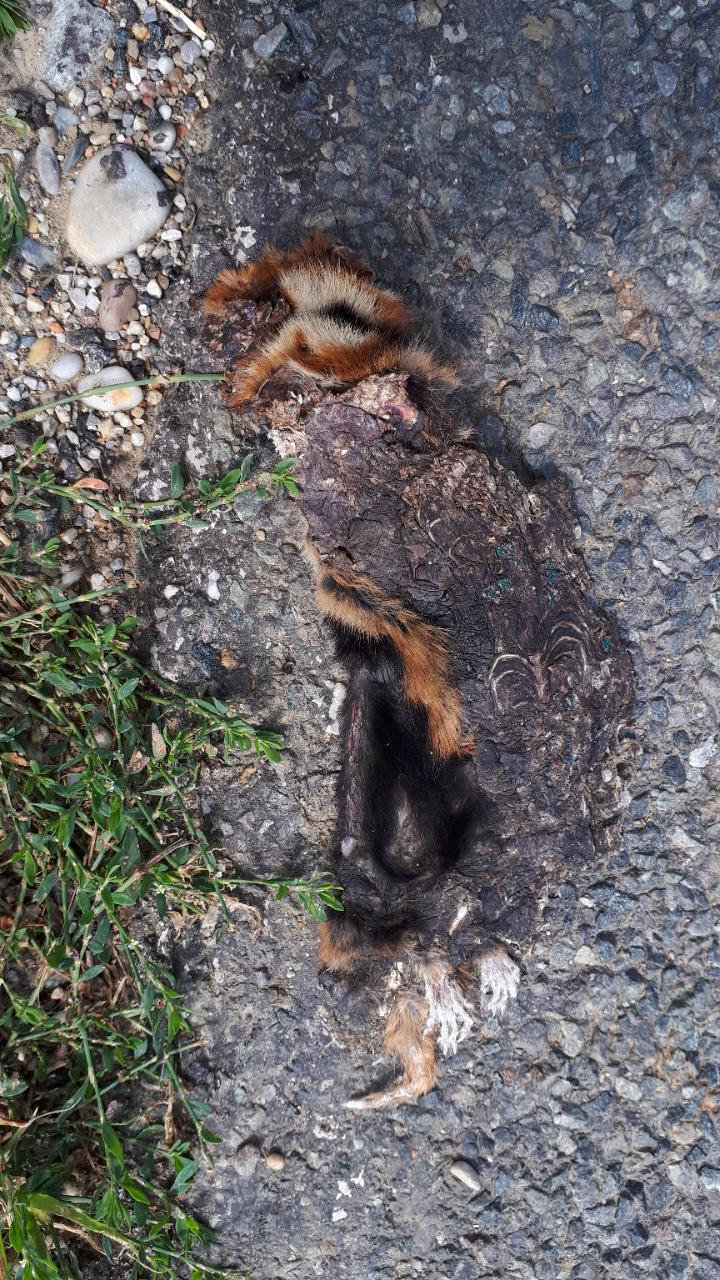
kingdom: Animalia
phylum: Chordata
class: Mammalia
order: Rodentia
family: Cricetidae
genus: Cricetus
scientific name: Cricetus cricetus
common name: Common hamster
